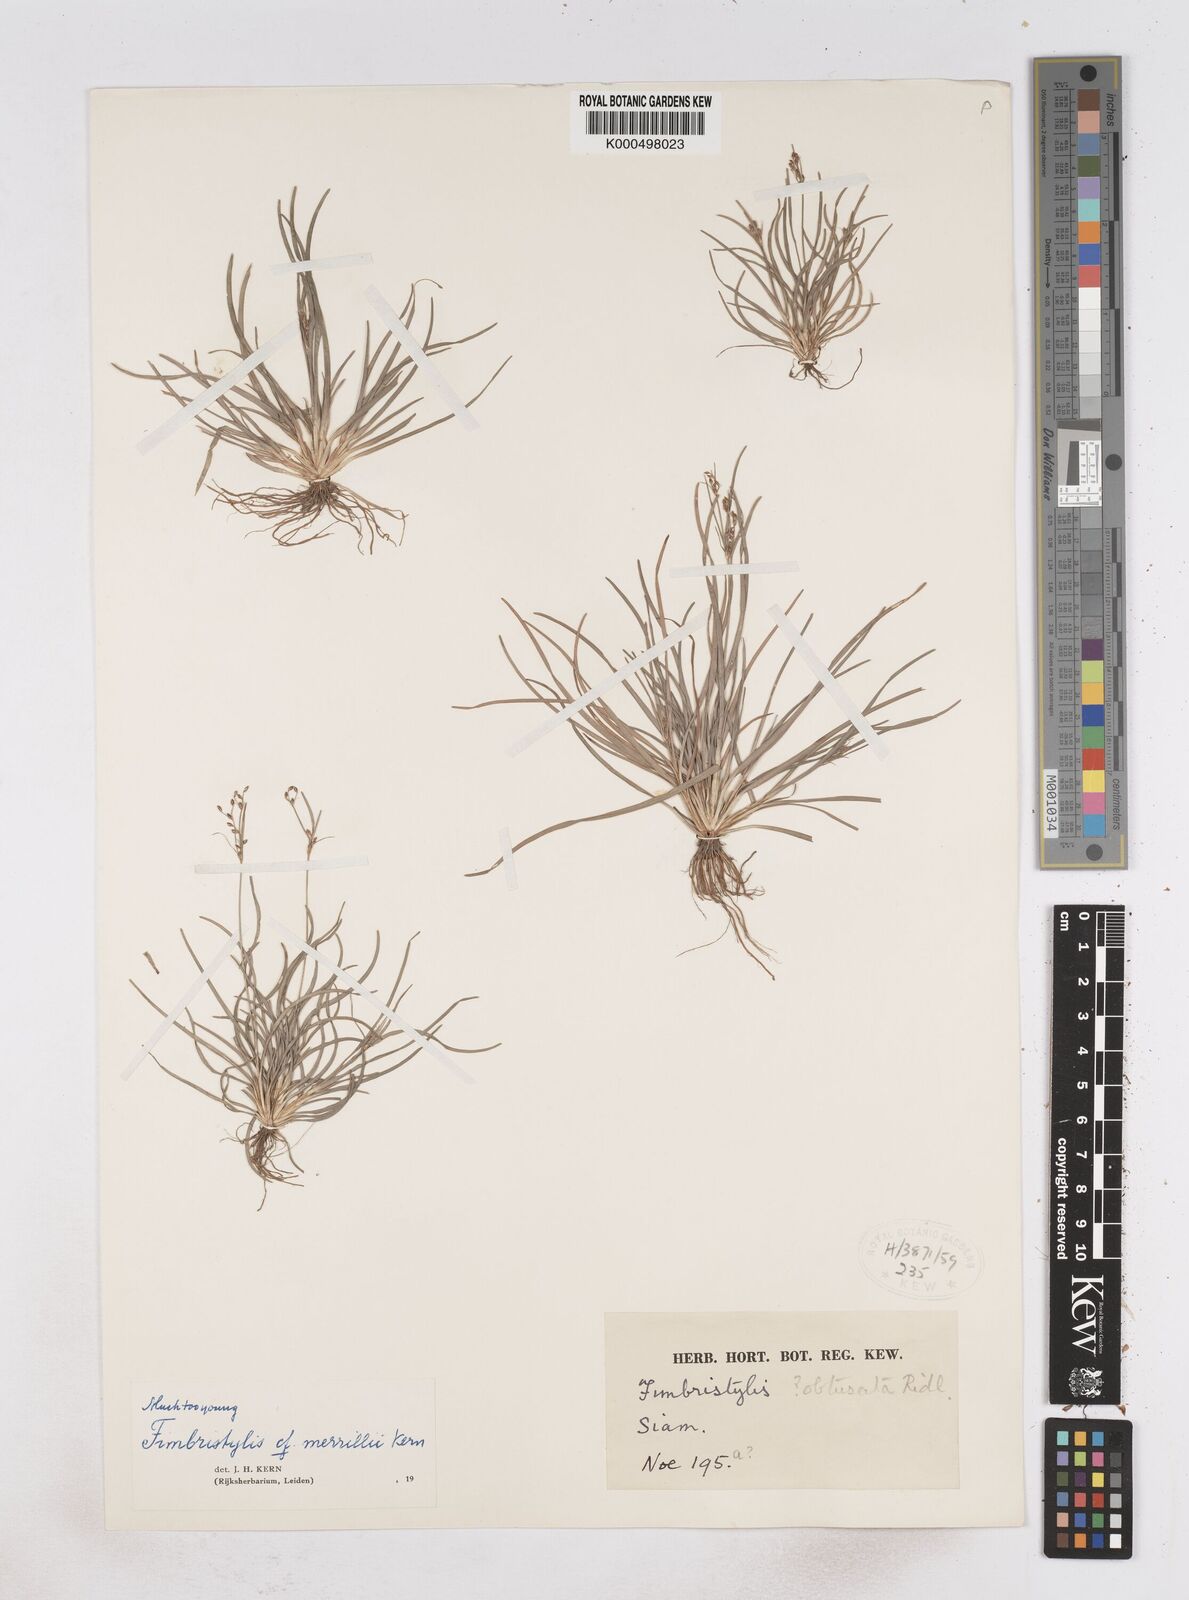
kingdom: Plantae
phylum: Tracheophyta
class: Liliopsida
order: Poales
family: Cyperaceae
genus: Fimbristylis
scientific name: Fimbristylis merrillii
